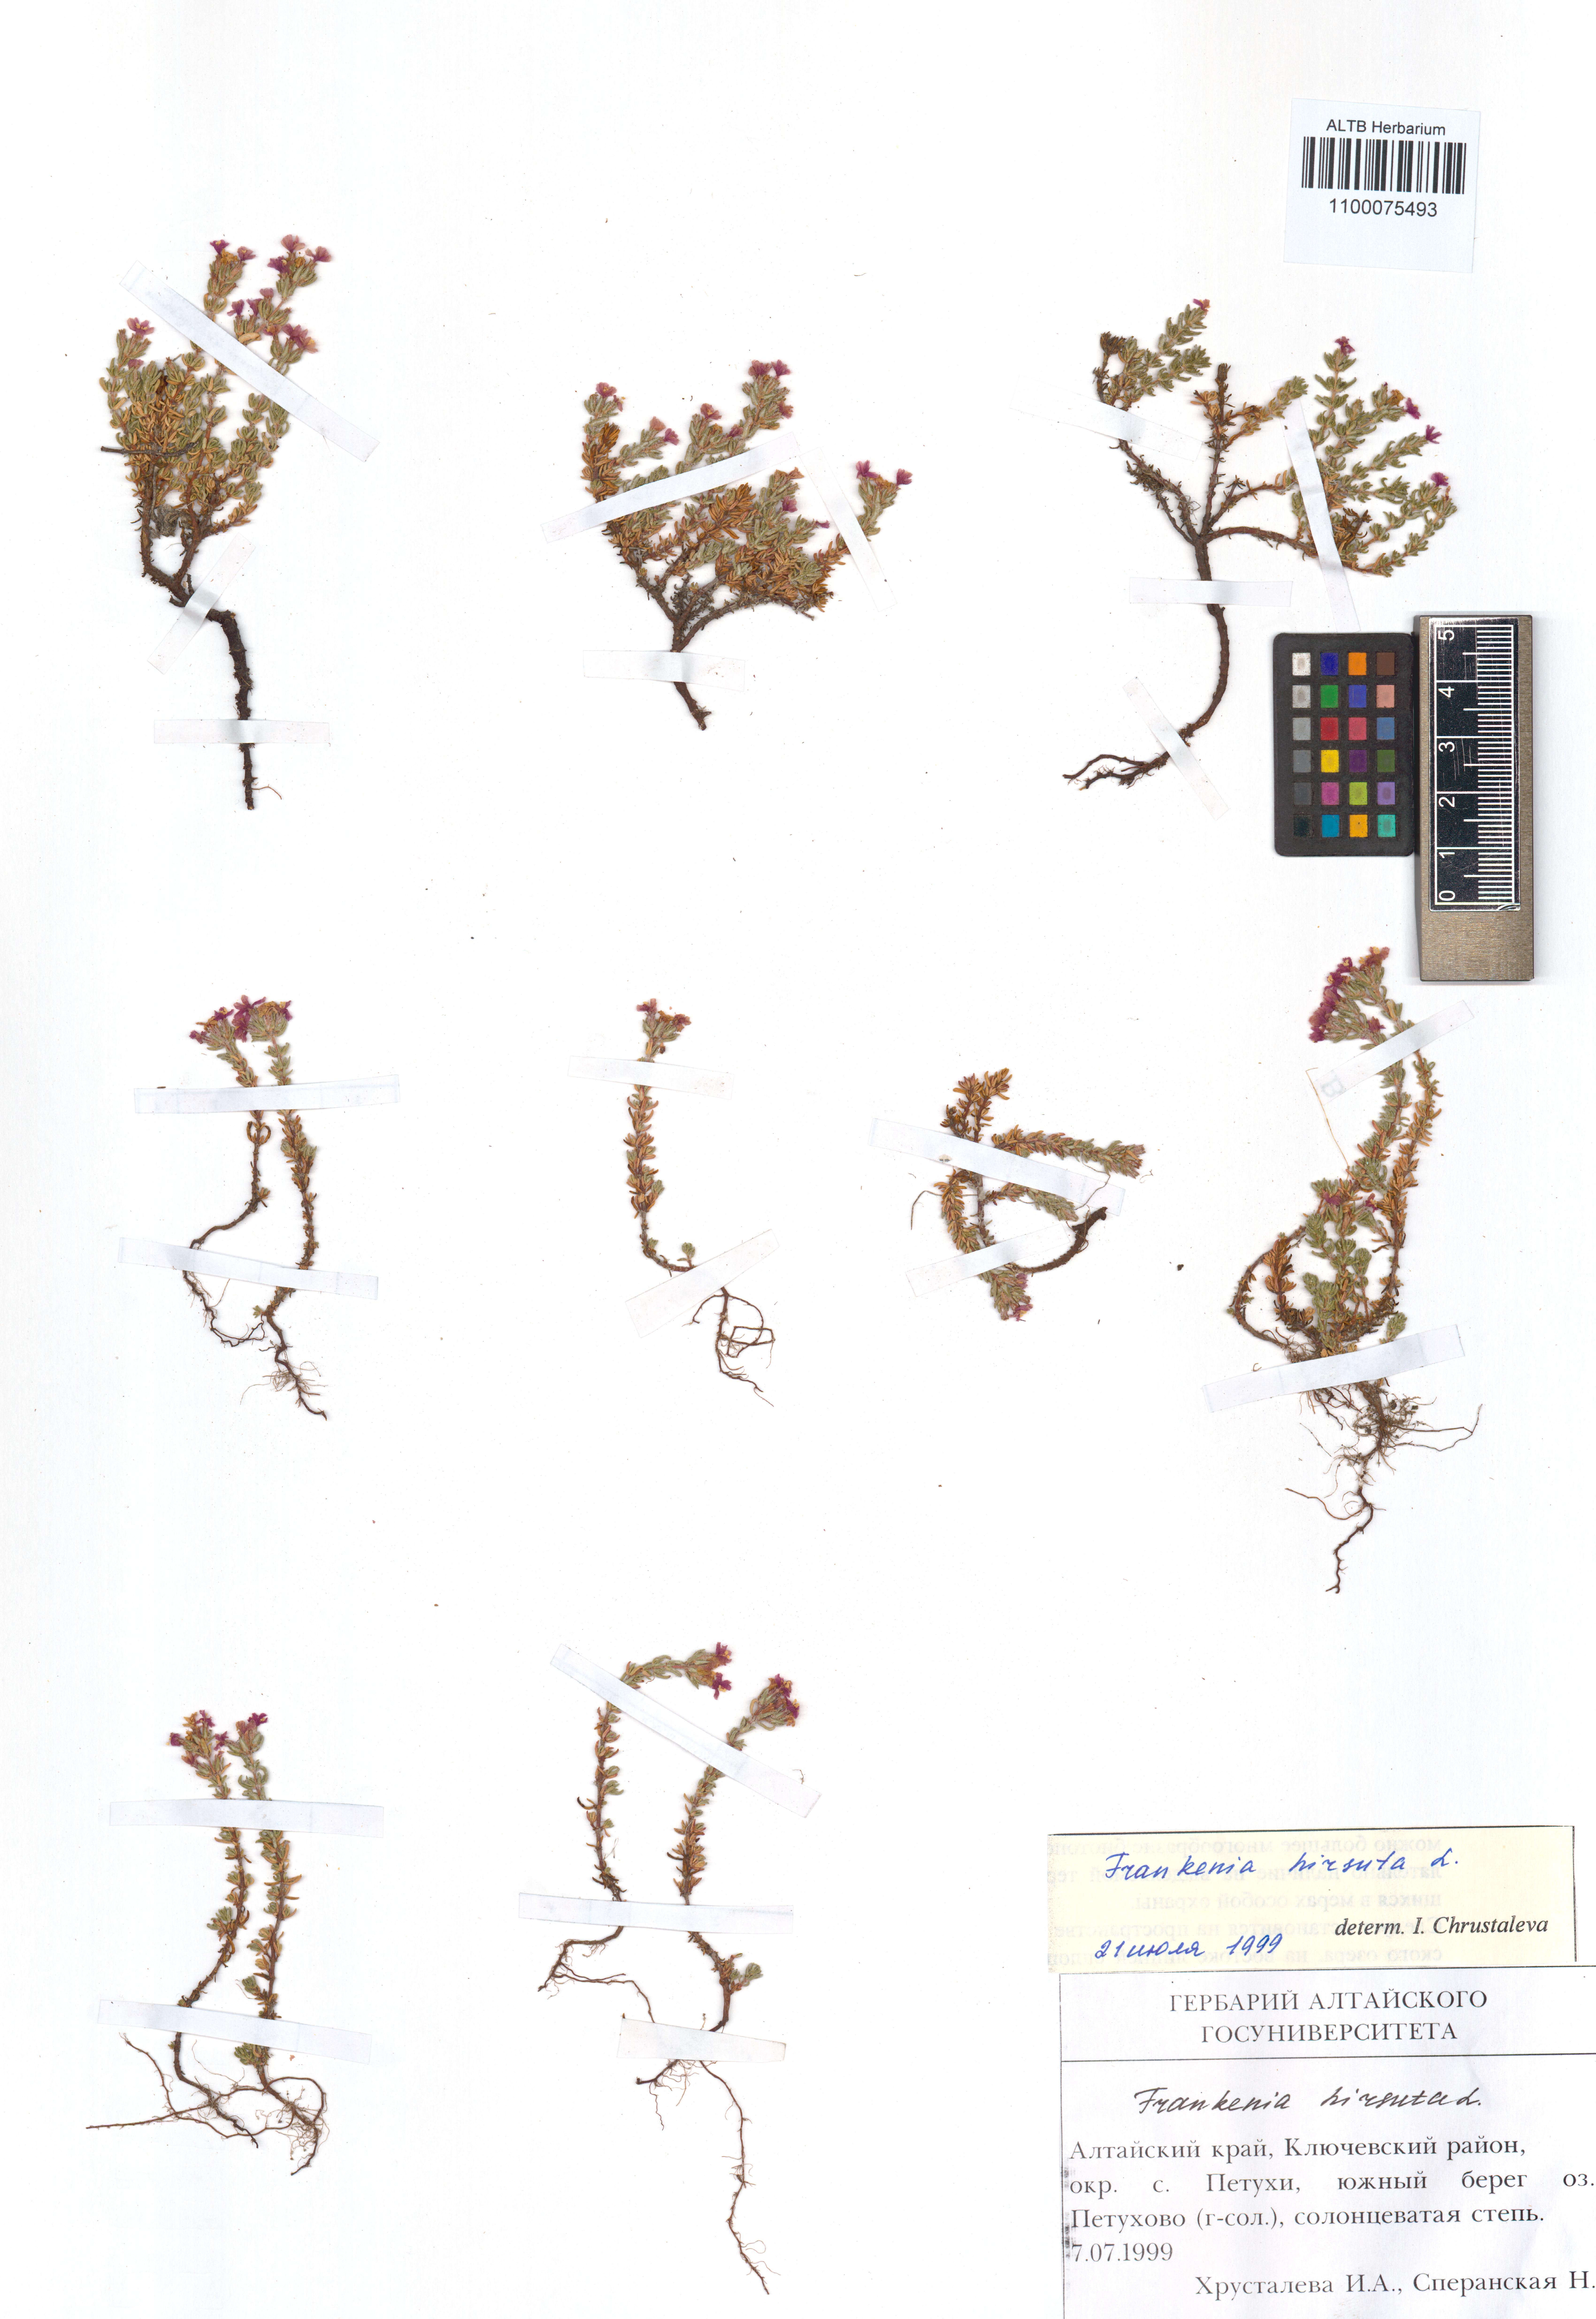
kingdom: Plantae
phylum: Tracheophyta
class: Magnoliopsida
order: Caryophyllales
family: Frankeniaceae
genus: Frankenia
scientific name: Frankenia hirsuta
